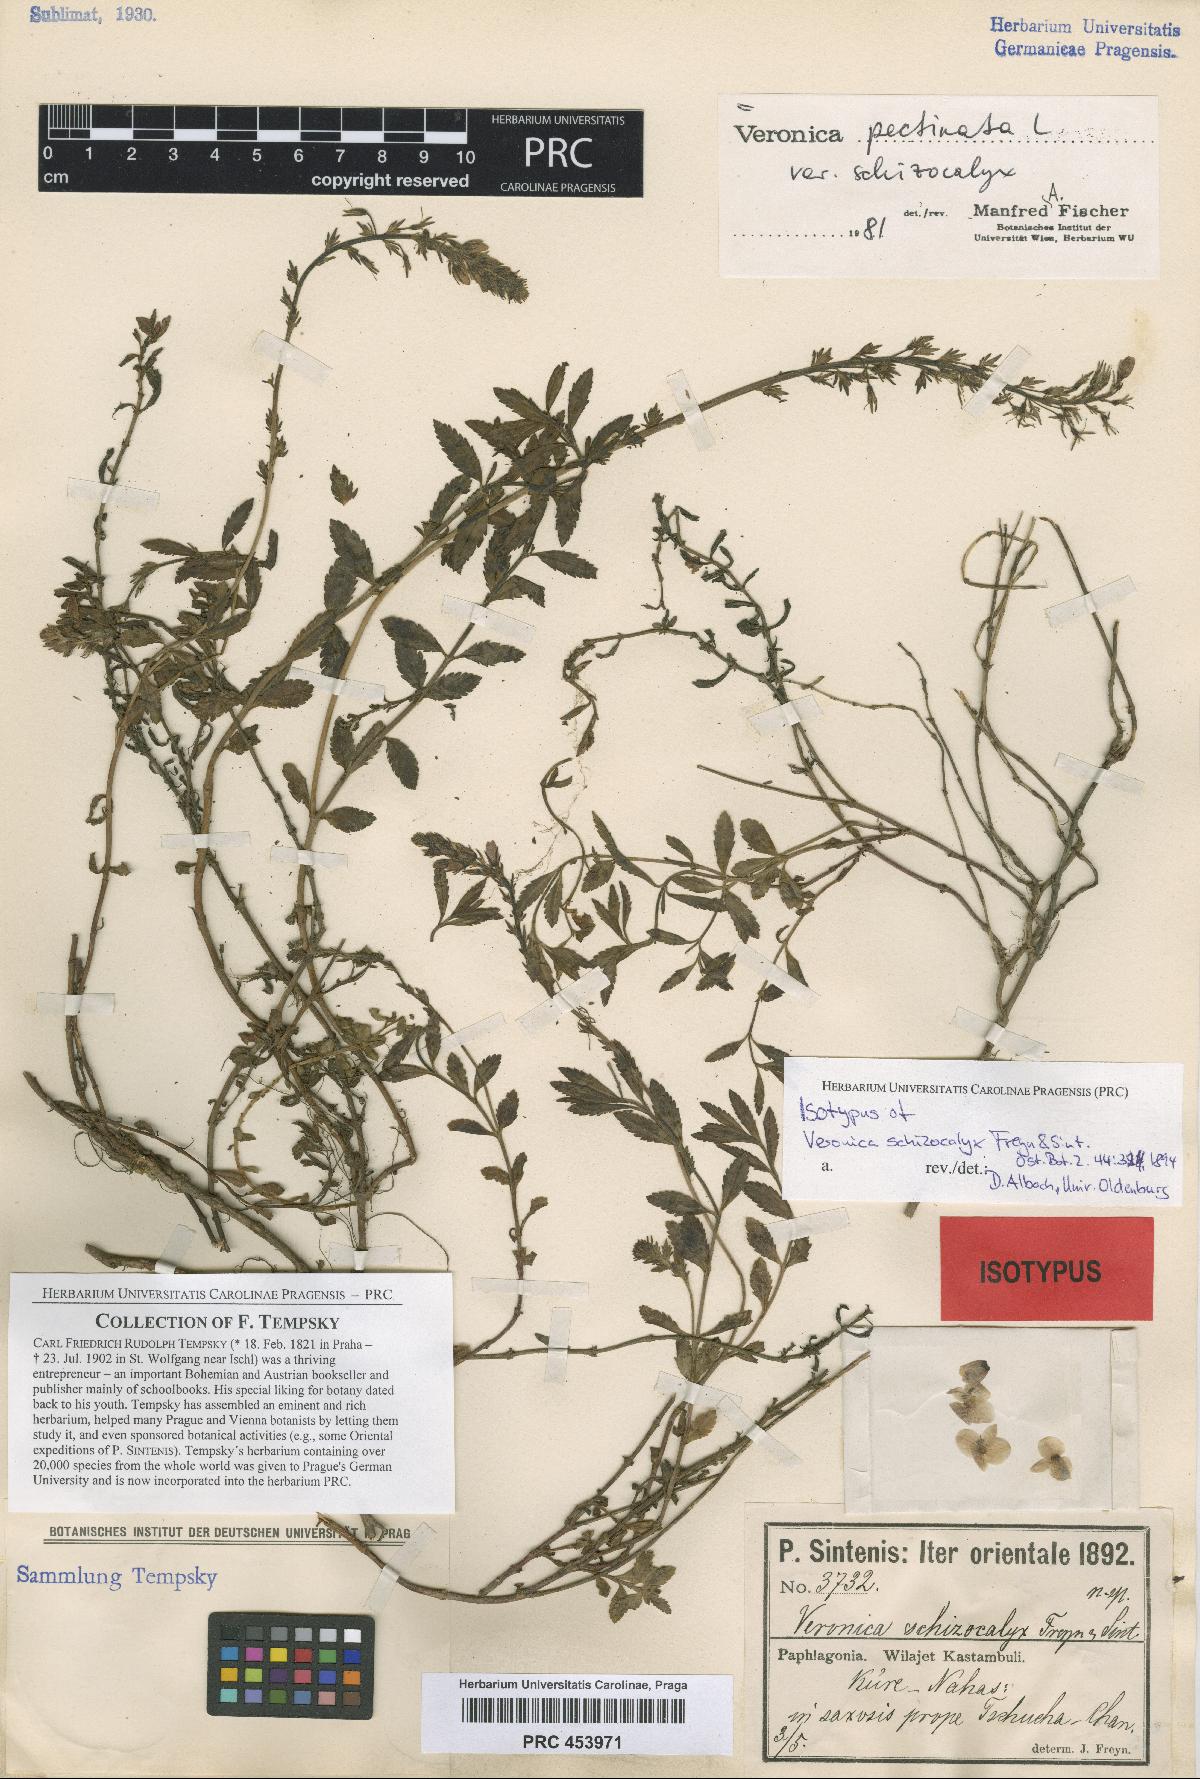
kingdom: Plantae
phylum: Tracheophyta
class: Magnoliopsida
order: Lamiales
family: Plantaginaceae
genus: Veronica
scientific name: Veronica pectinata
